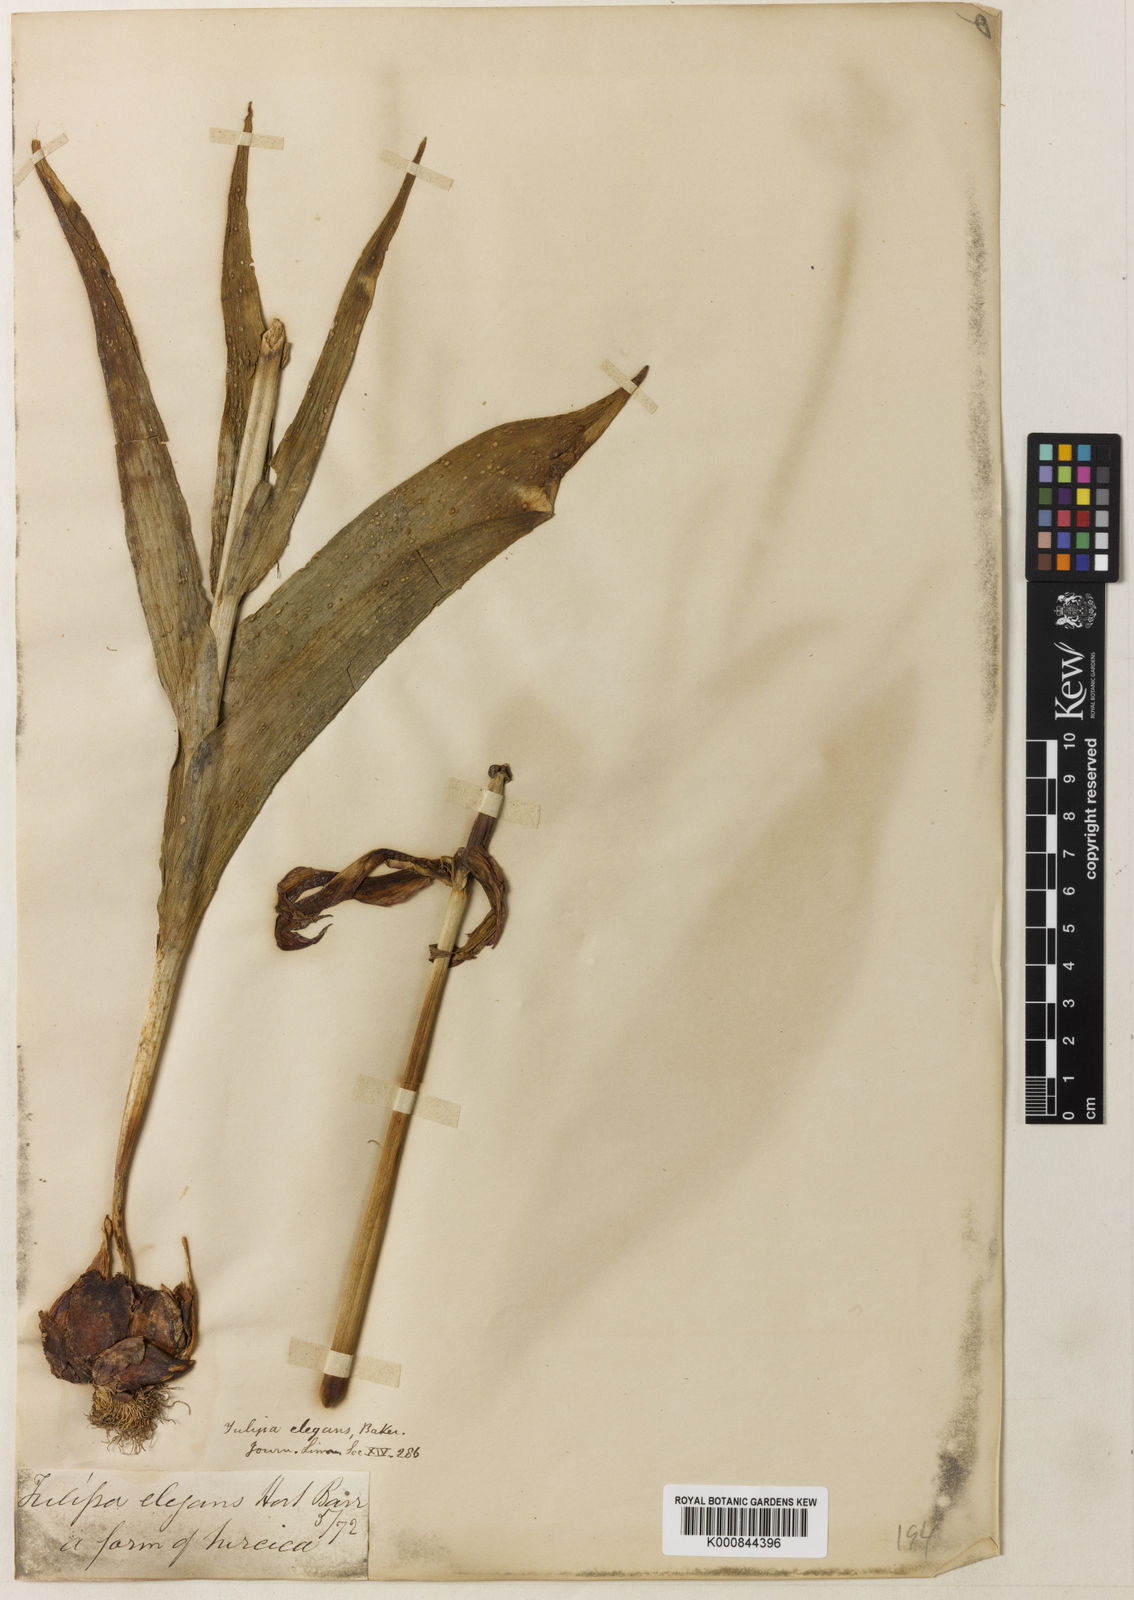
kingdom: Plantae
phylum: Tracheophyta
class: Liliopsida
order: Liliales
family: Liliaceae
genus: Tulipa
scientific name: Tulipa gesneriana
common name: Garden tulip
